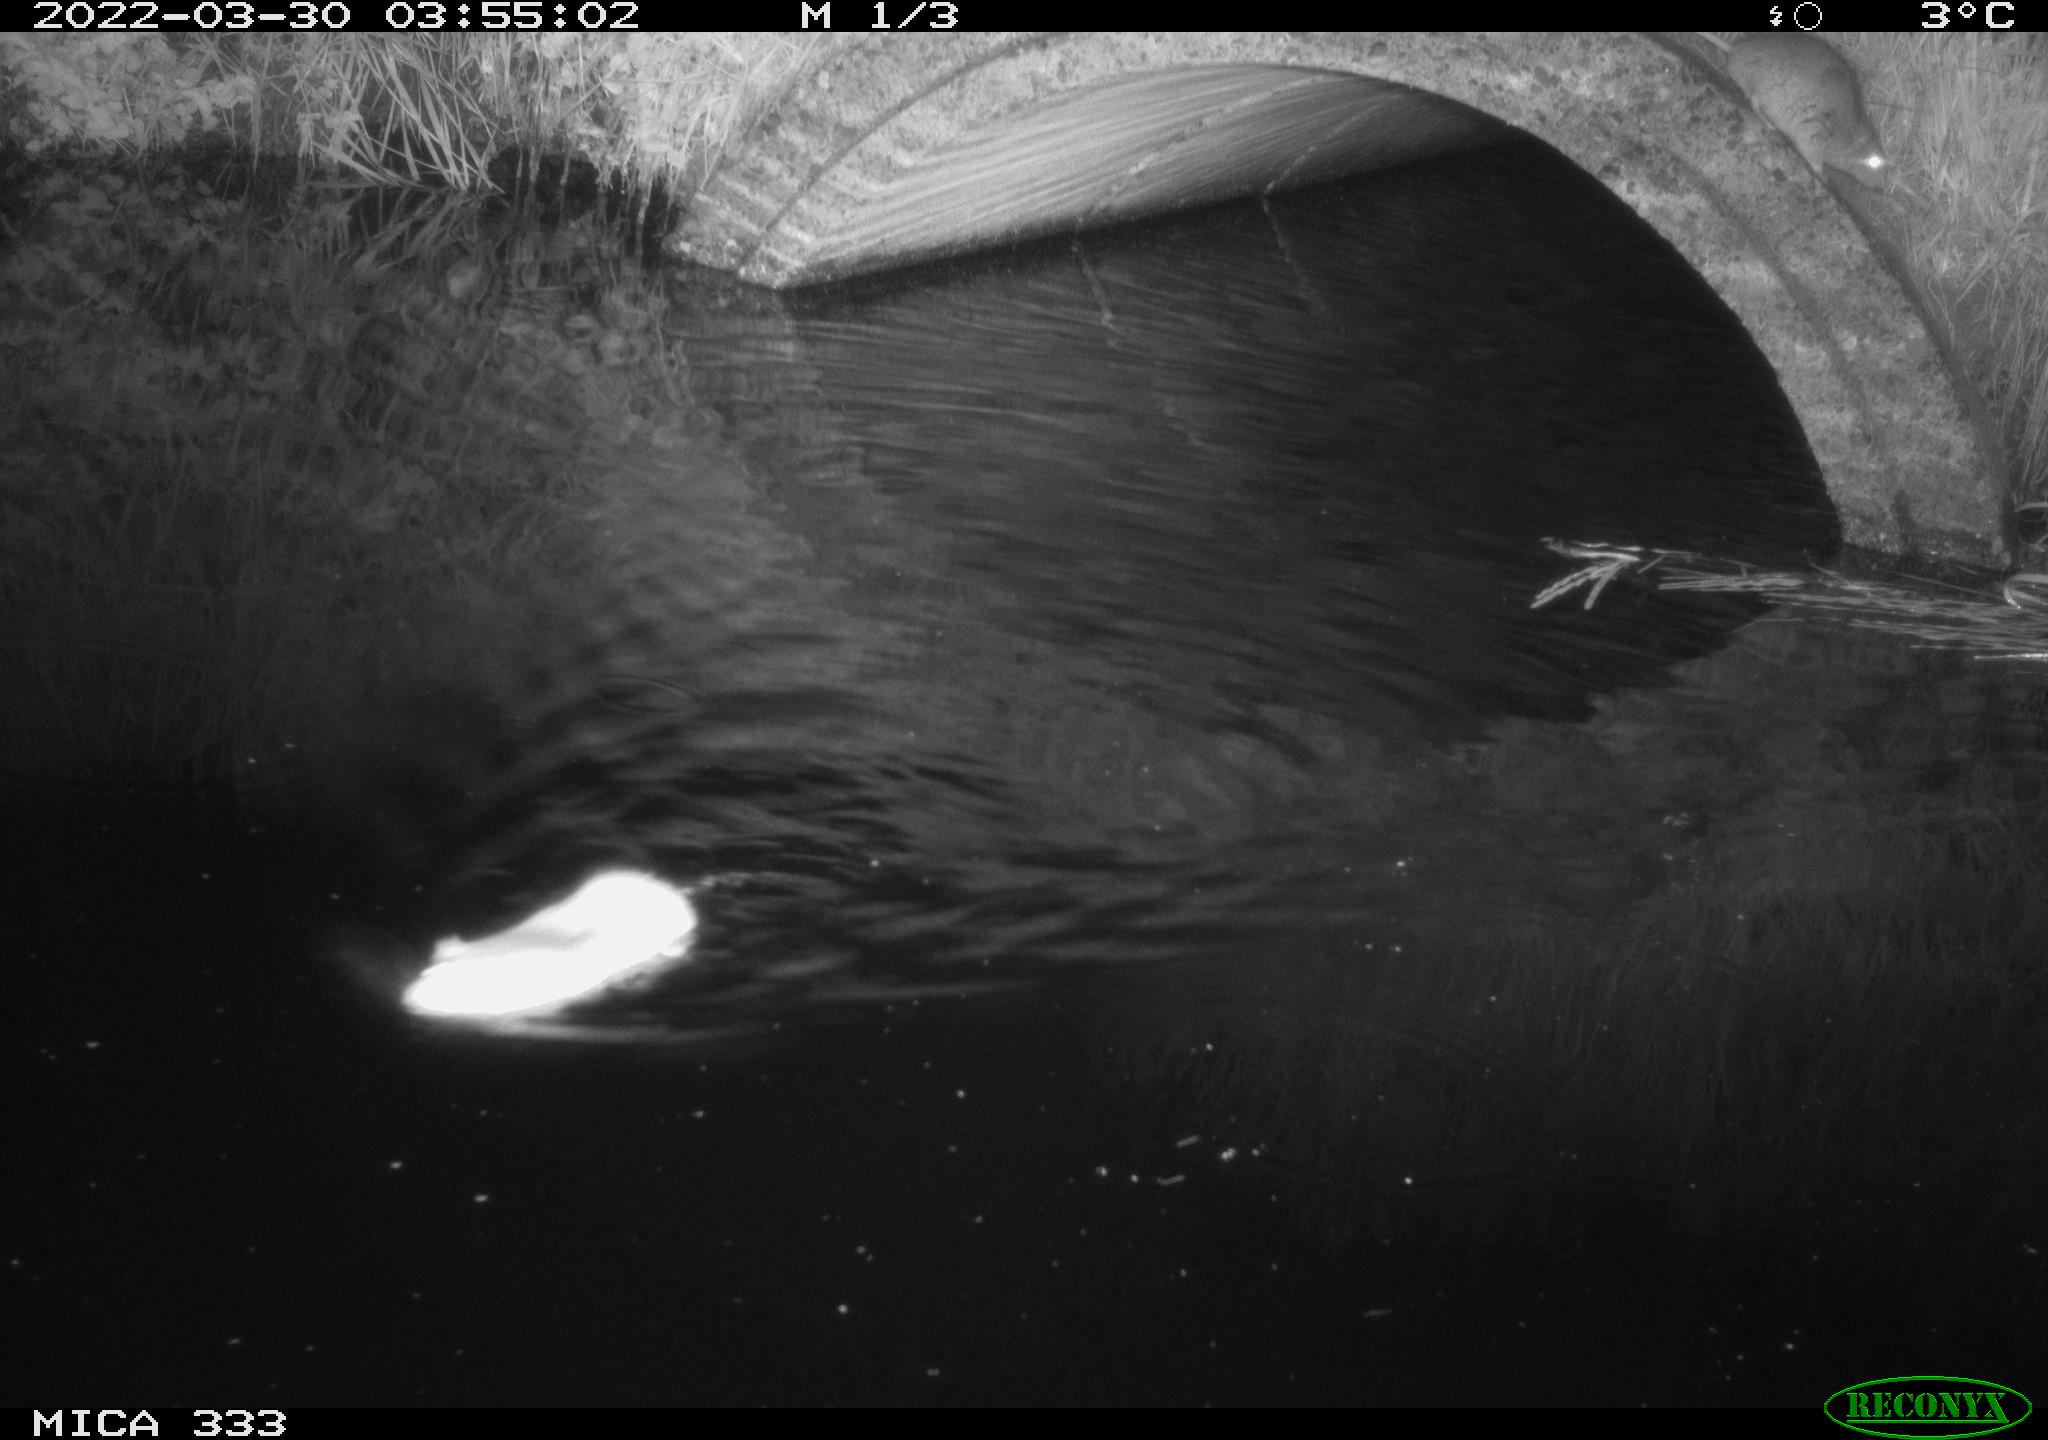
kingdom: Animalia
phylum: Chordata
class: Mammalia
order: Rodentia
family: Muridae
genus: Rattus
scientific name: Rattus norvegicus
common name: Brown rat
